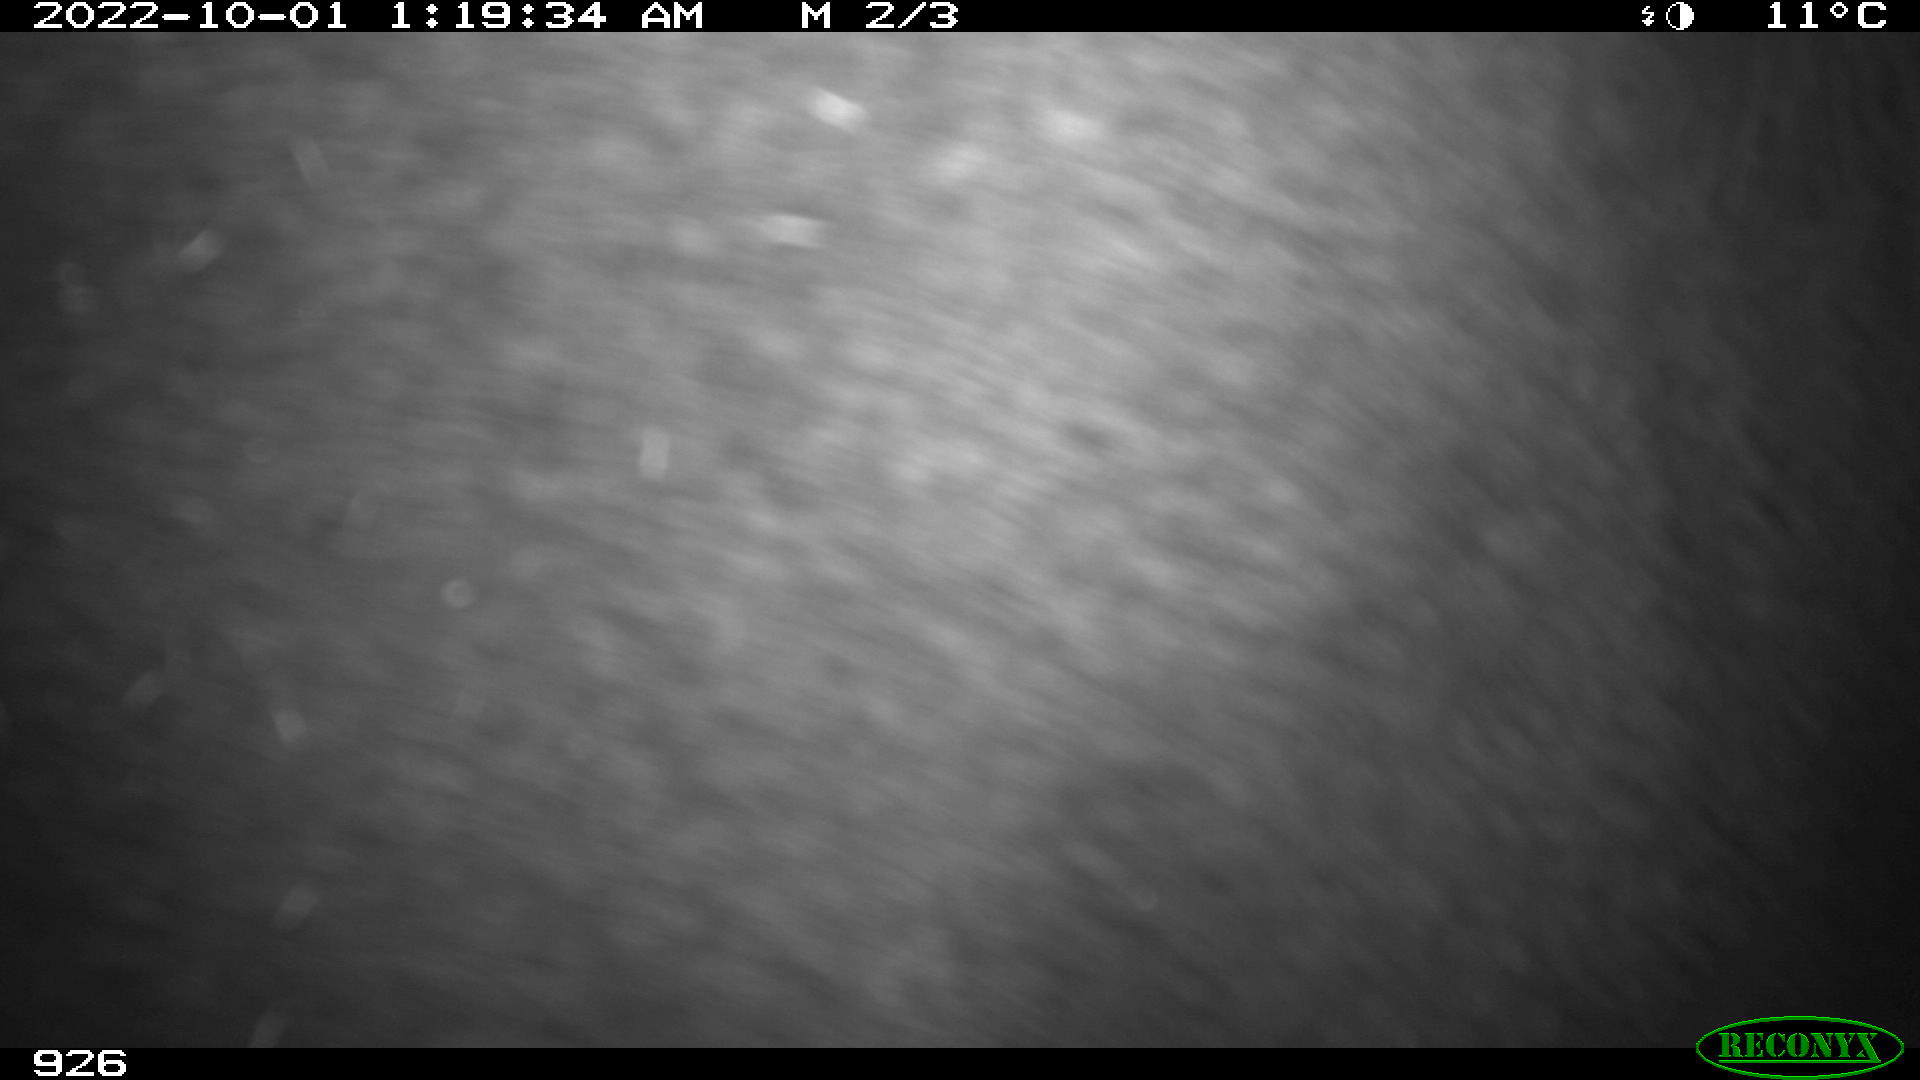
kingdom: Animalia
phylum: Chordata
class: Mammalia
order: Perissodactyla
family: Equidae
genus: Equus
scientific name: Equus caballus
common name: Horse
